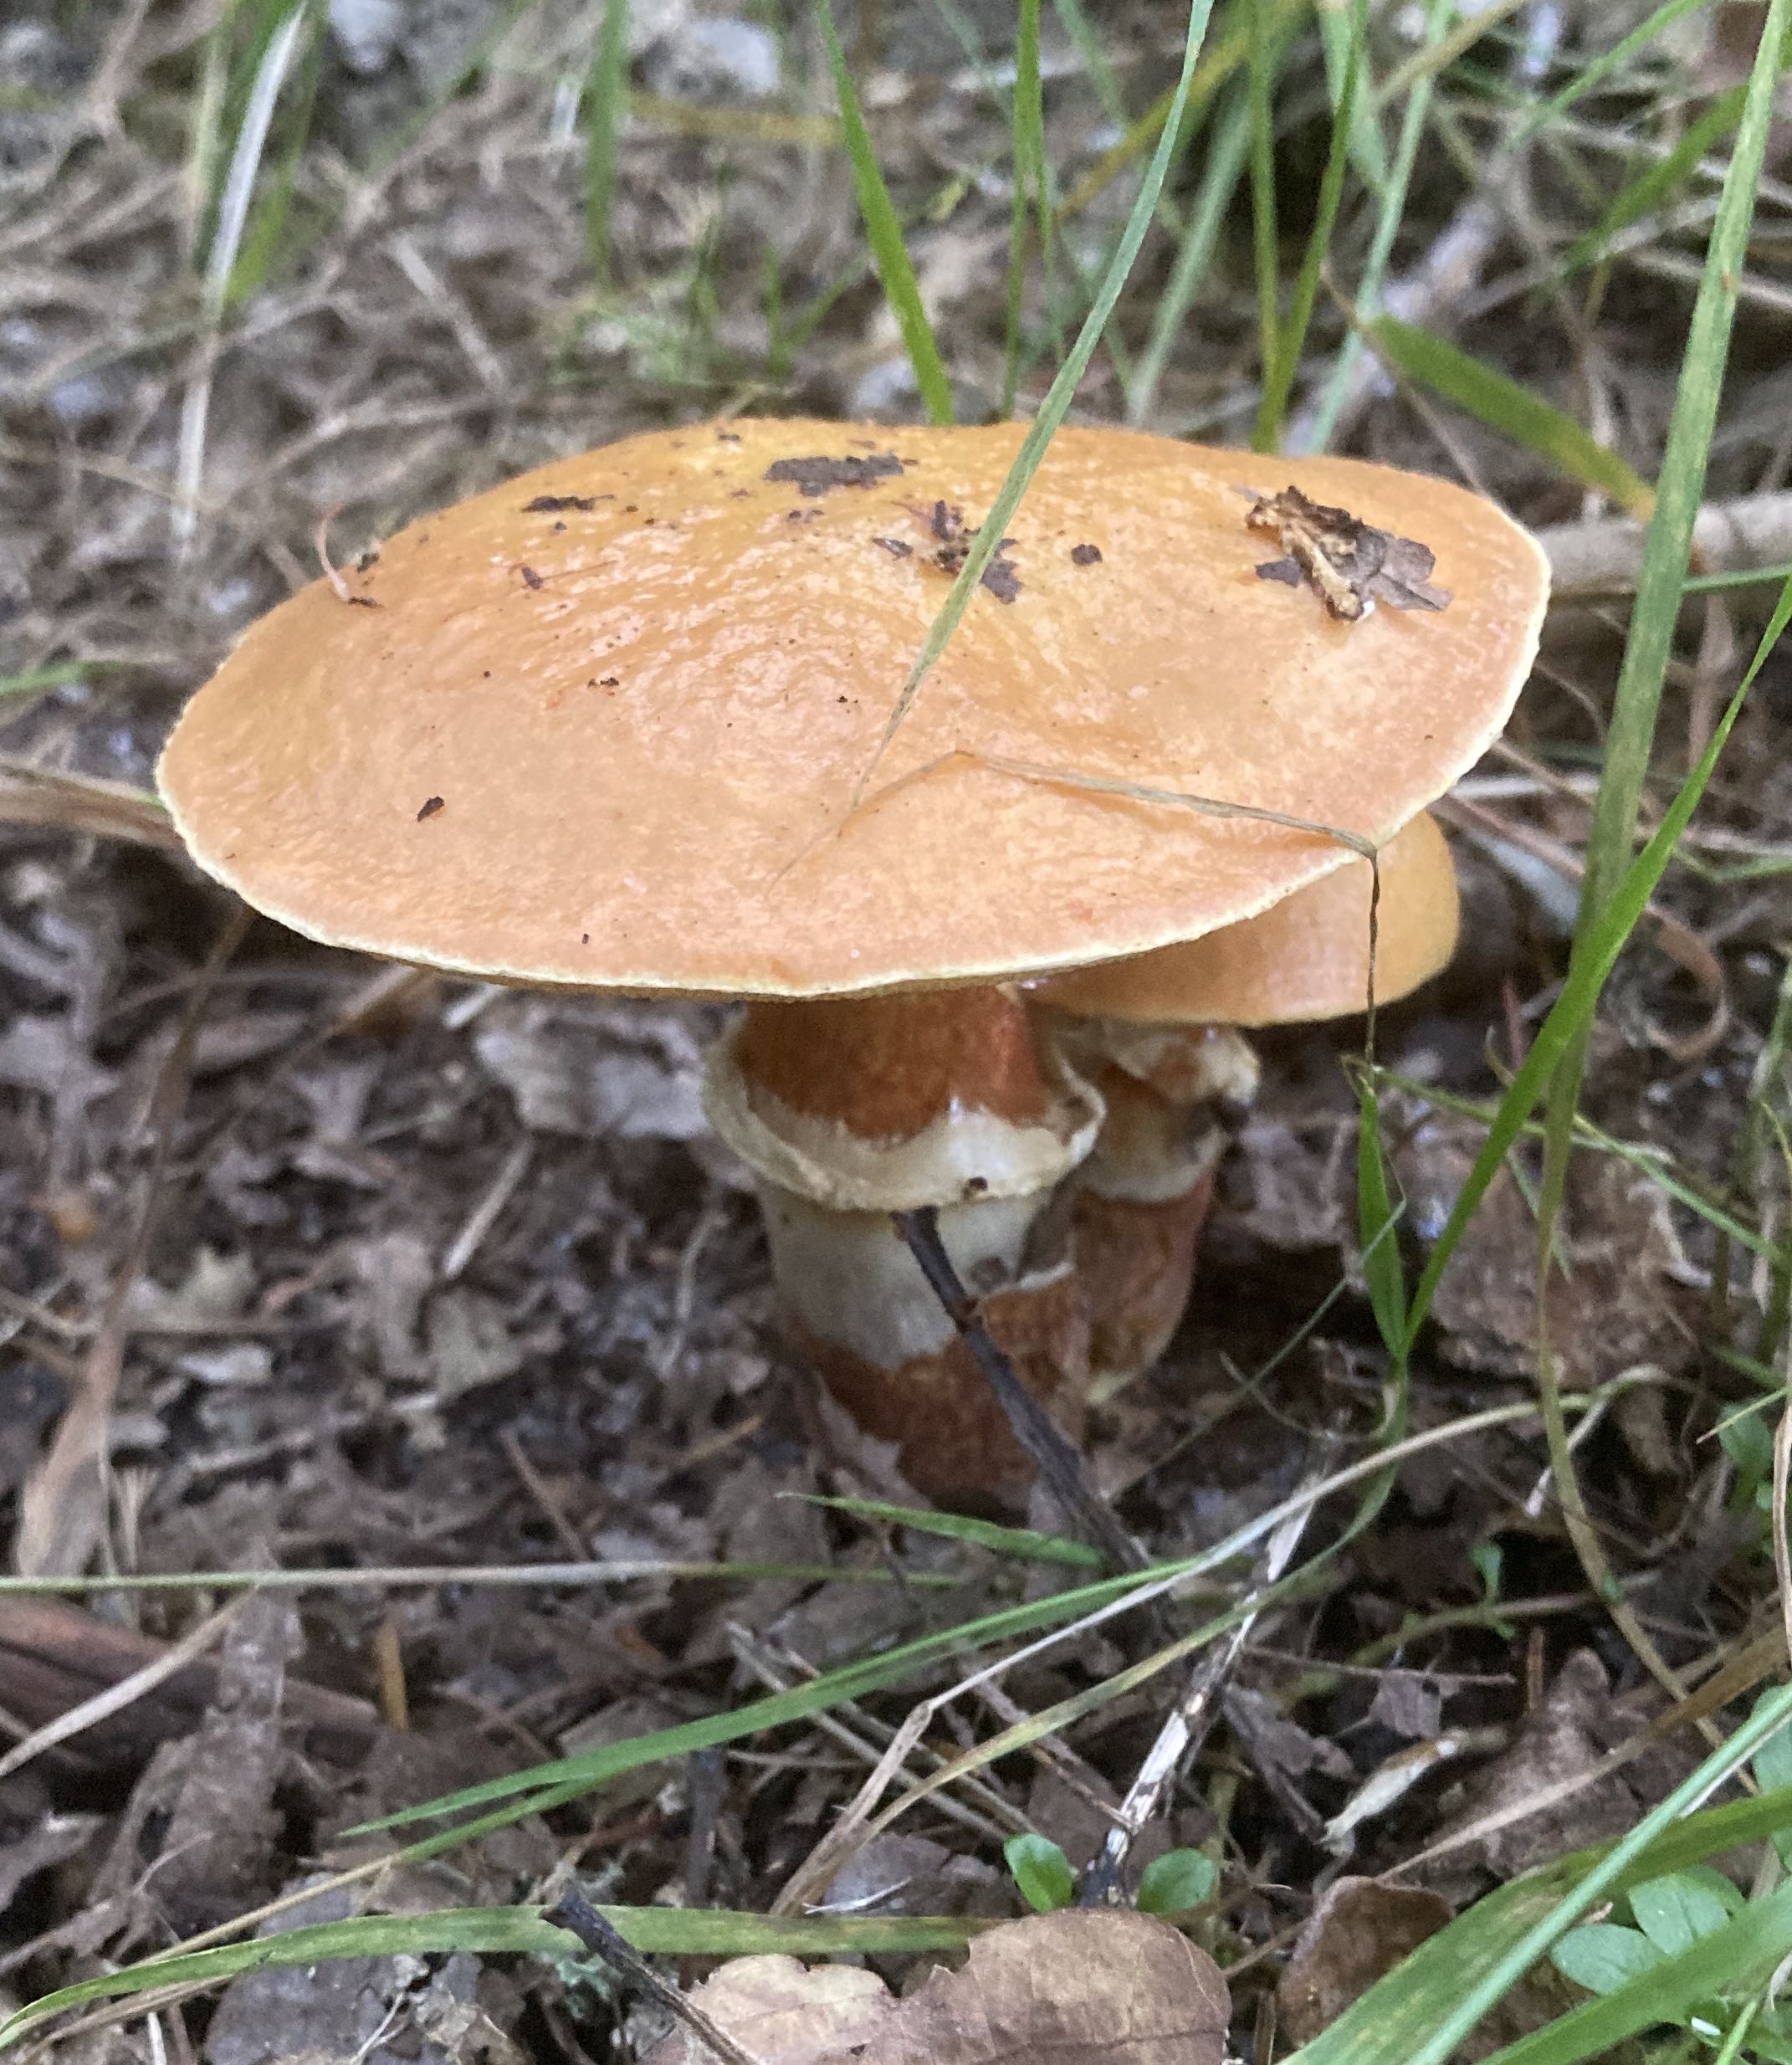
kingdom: Fungi
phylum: Basidiomycota
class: Agaricomycetes
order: Boletales
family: Suillaceae
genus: Suillus
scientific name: Suillus grevillei
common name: lærke-slimrørhat
